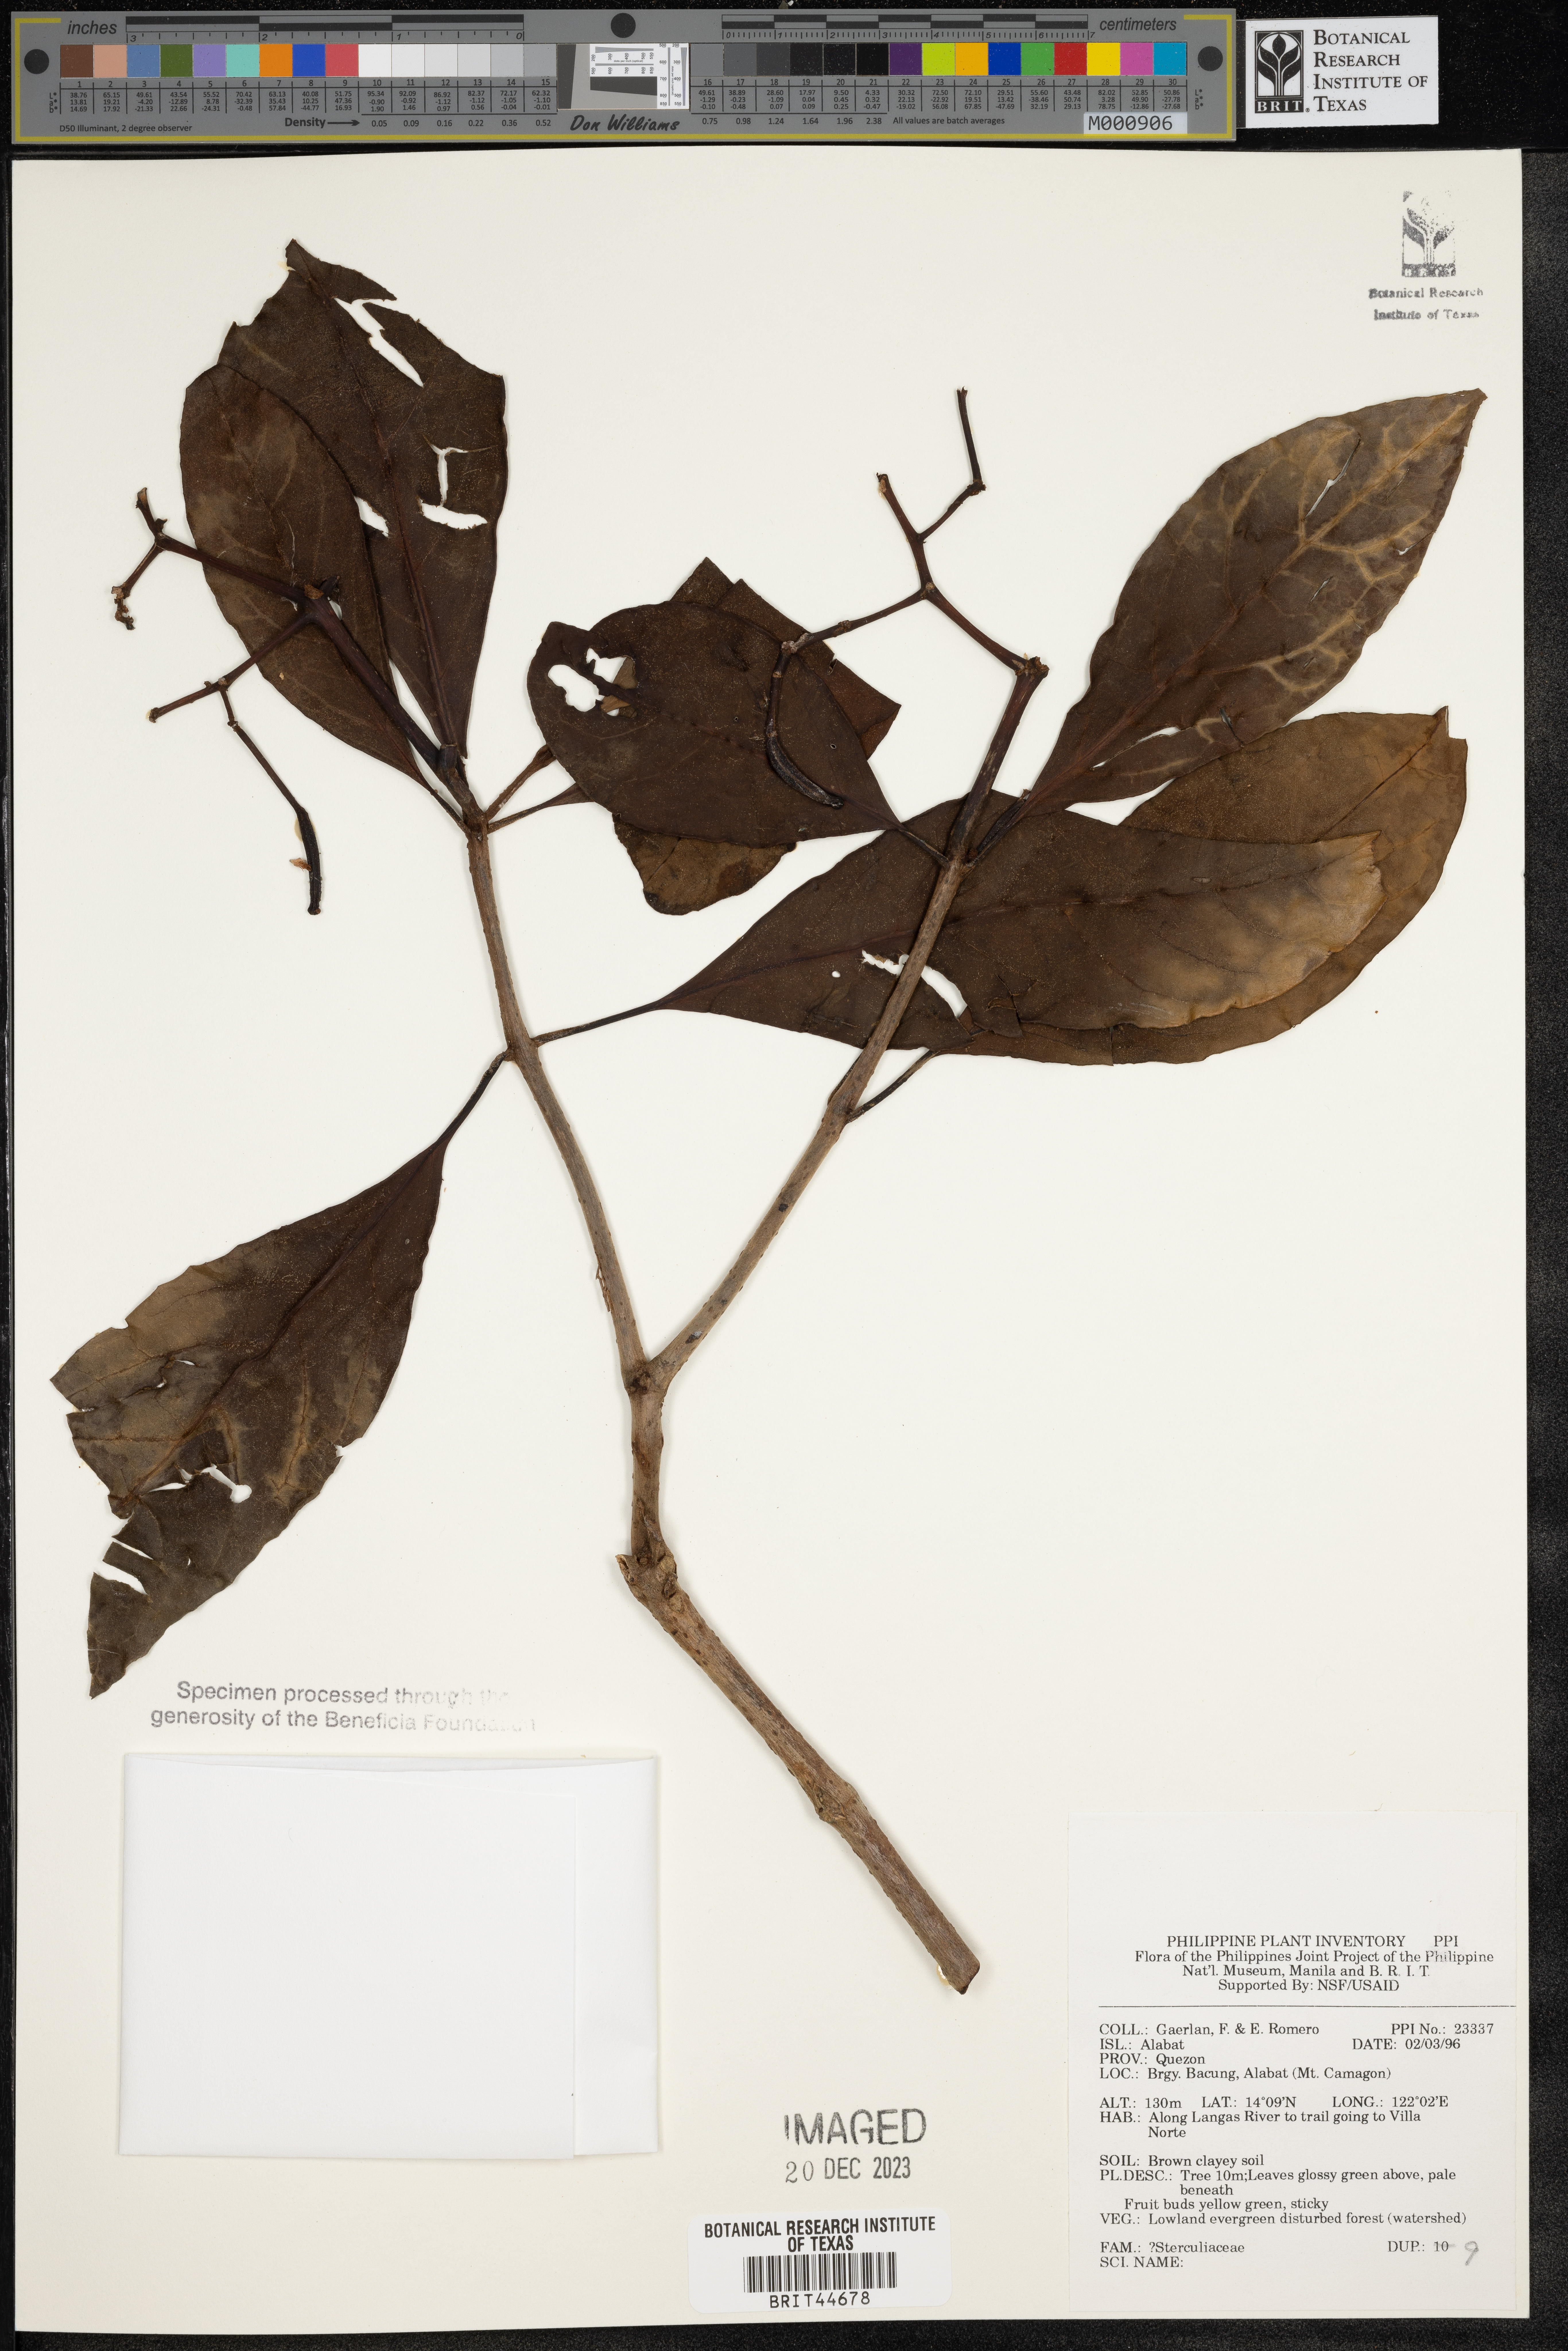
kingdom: Plantae
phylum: Tracheophyta
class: Magnoliopsida
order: Malvales
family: Sterculiaceae
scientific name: Sterculiaceae
